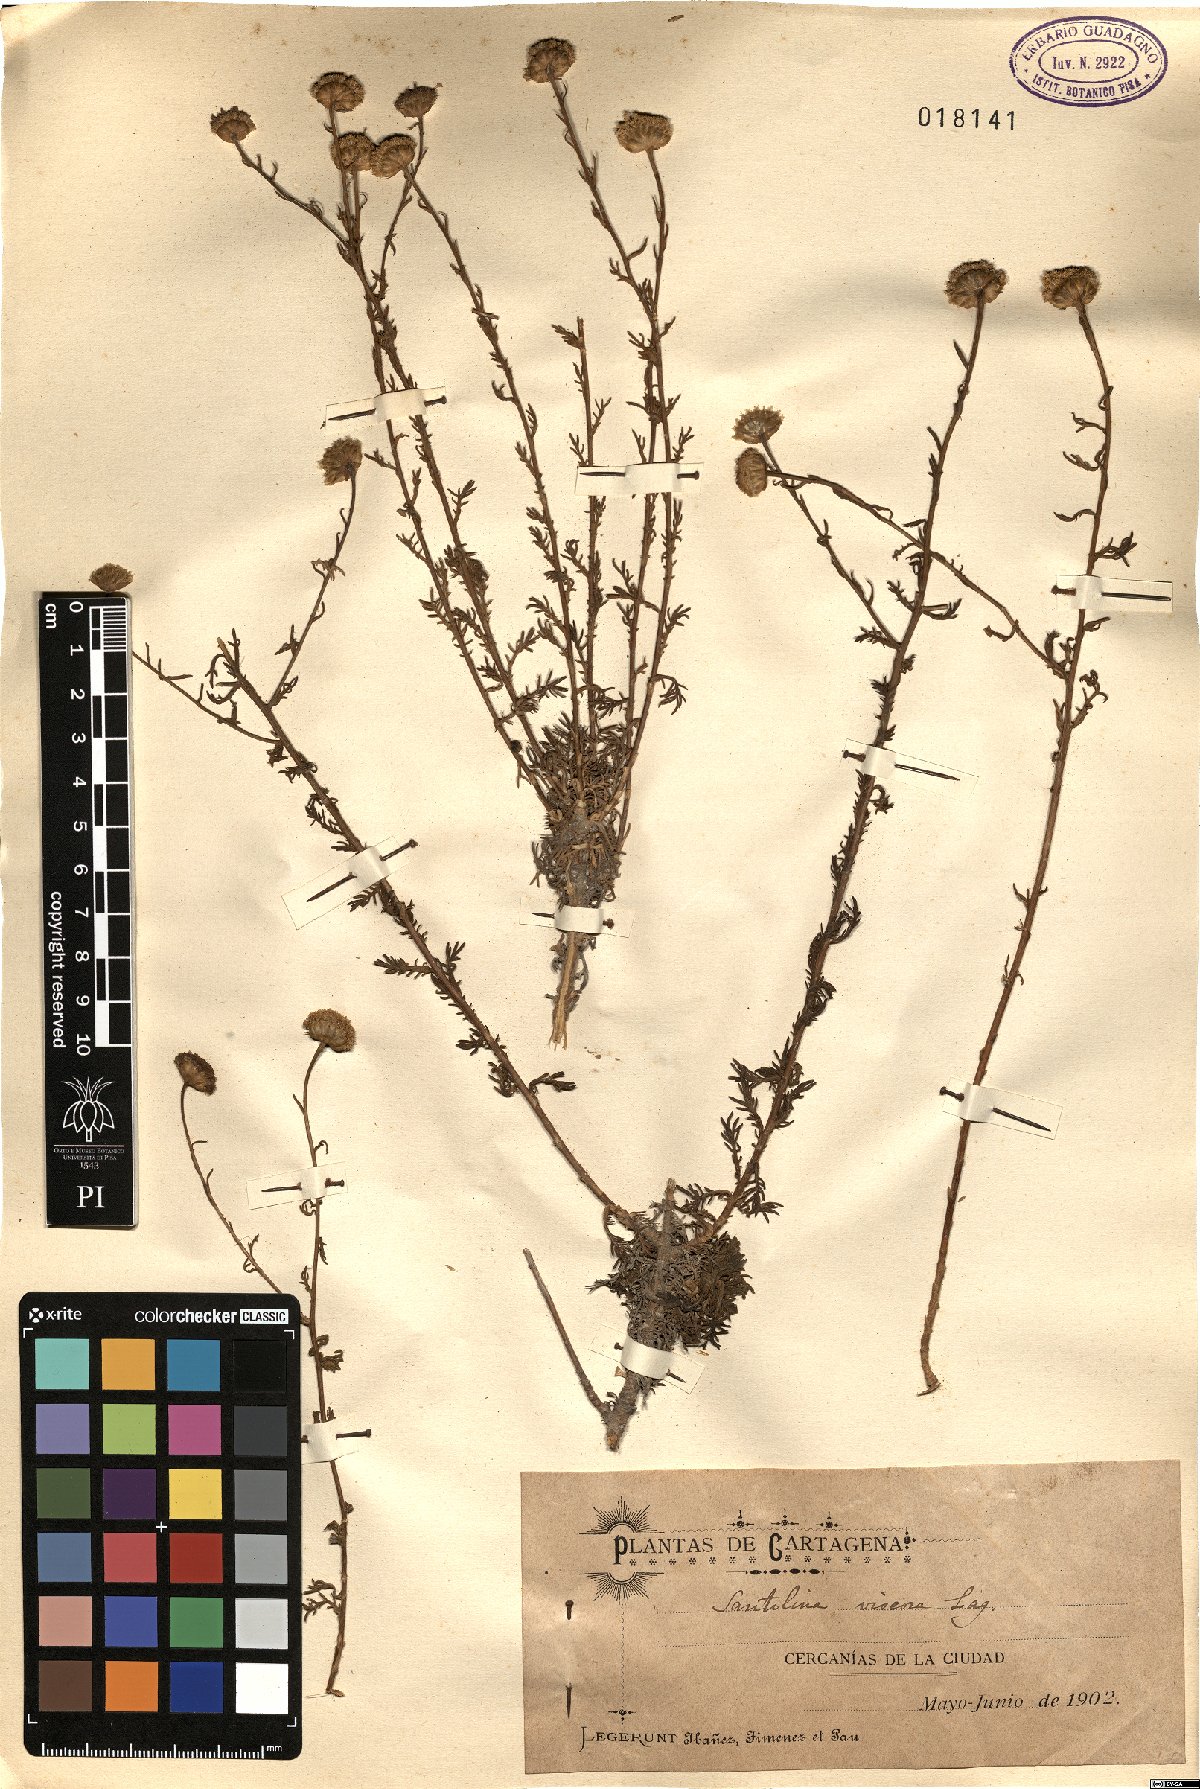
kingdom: Plantae
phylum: Tracheophyta
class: Magnoliopsida
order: Asterales
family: Asteraceae
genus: Santolina
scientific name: Santolina viscosa
